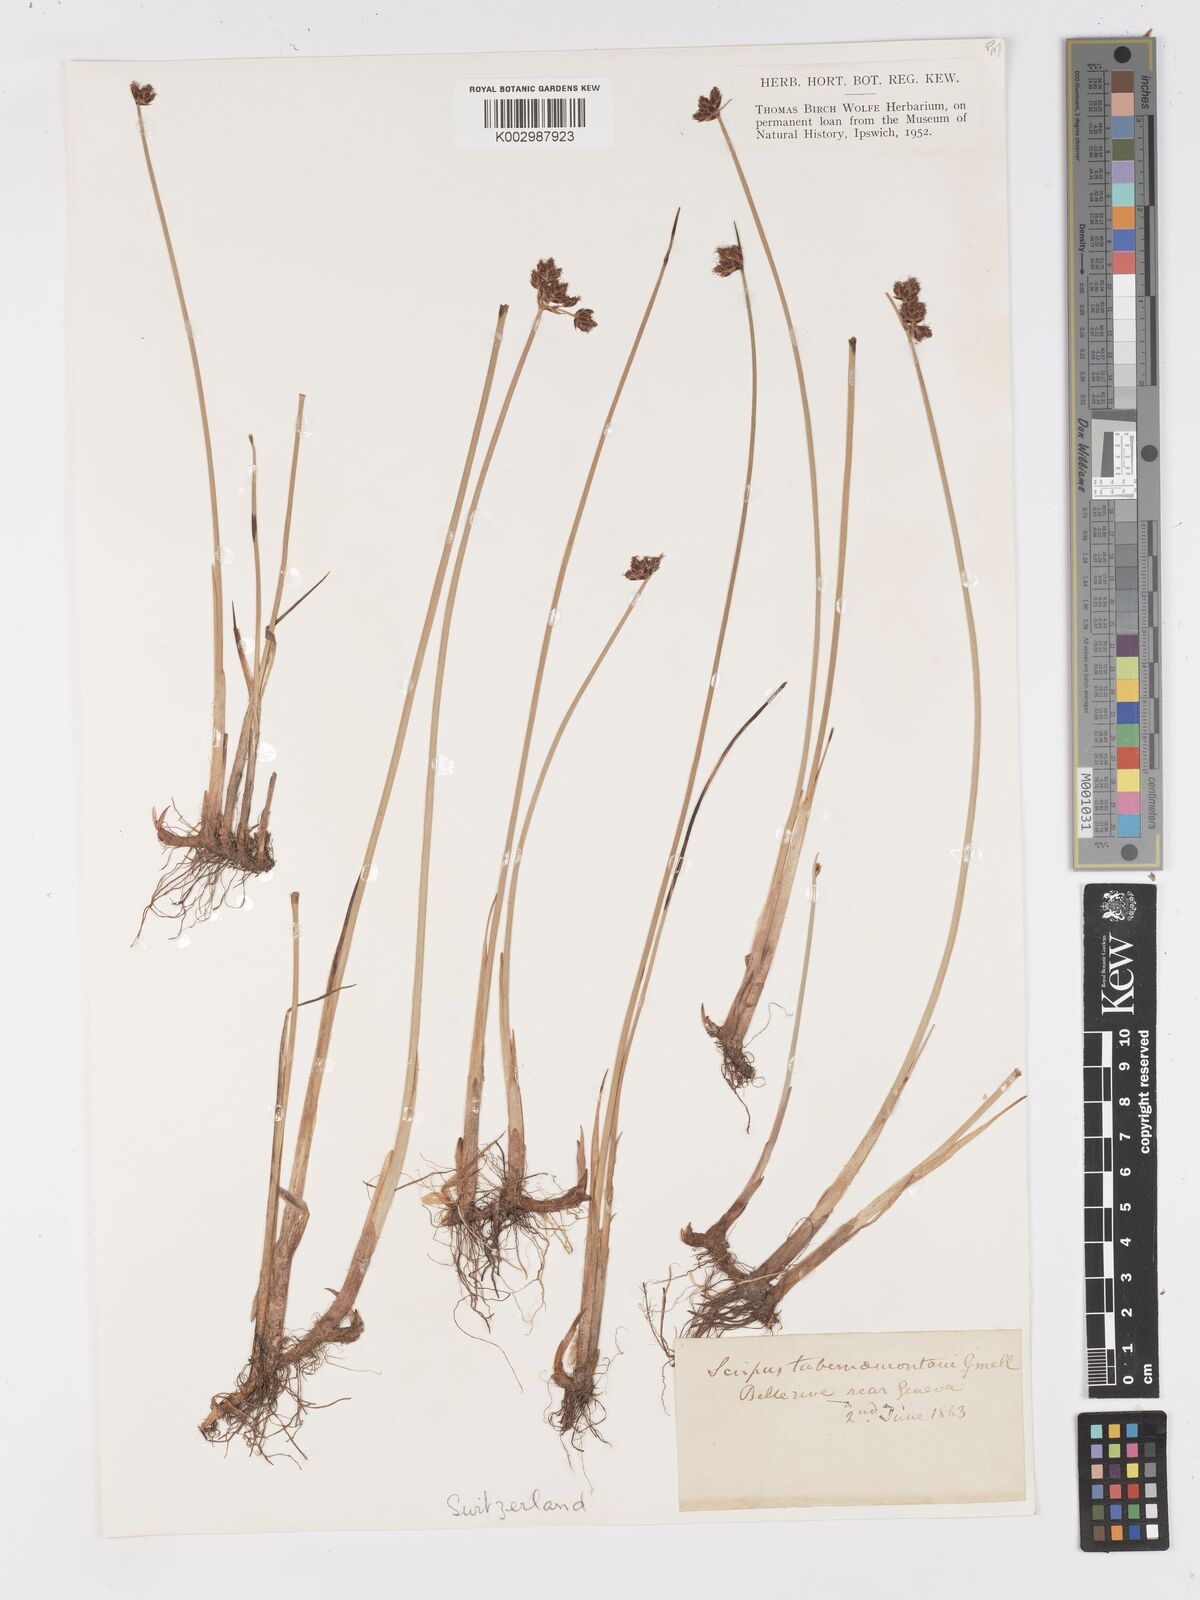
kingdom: Plantae
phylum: Tracheophyta
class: Liliopsida
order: Poales
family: Cyperaceae
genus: Schoenoplectus
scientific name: Schoenoplectus tabernaemontani
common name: Grey club-rush
